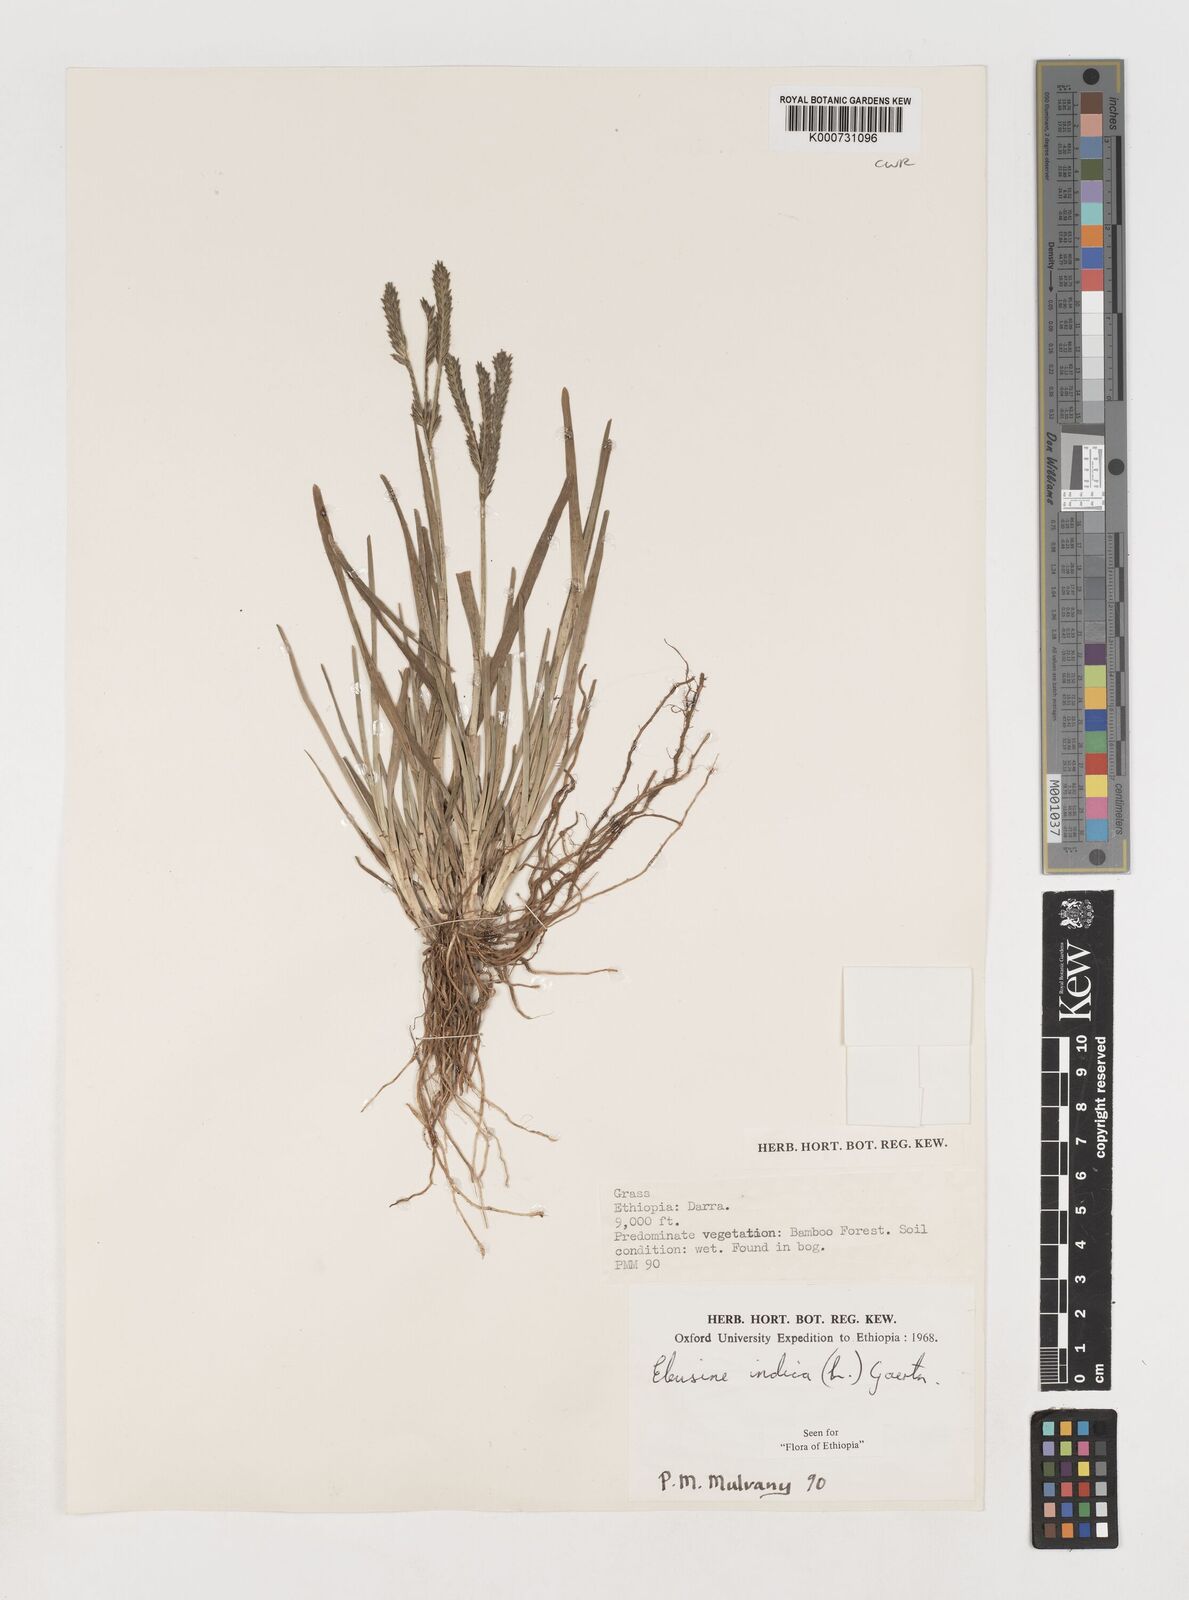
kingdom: Plantae
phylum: Tracheophyta
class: Liliopsida
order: Poales
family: Poaceae
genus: Eleusine
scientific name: Eleusine indica
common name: Yard-grass
